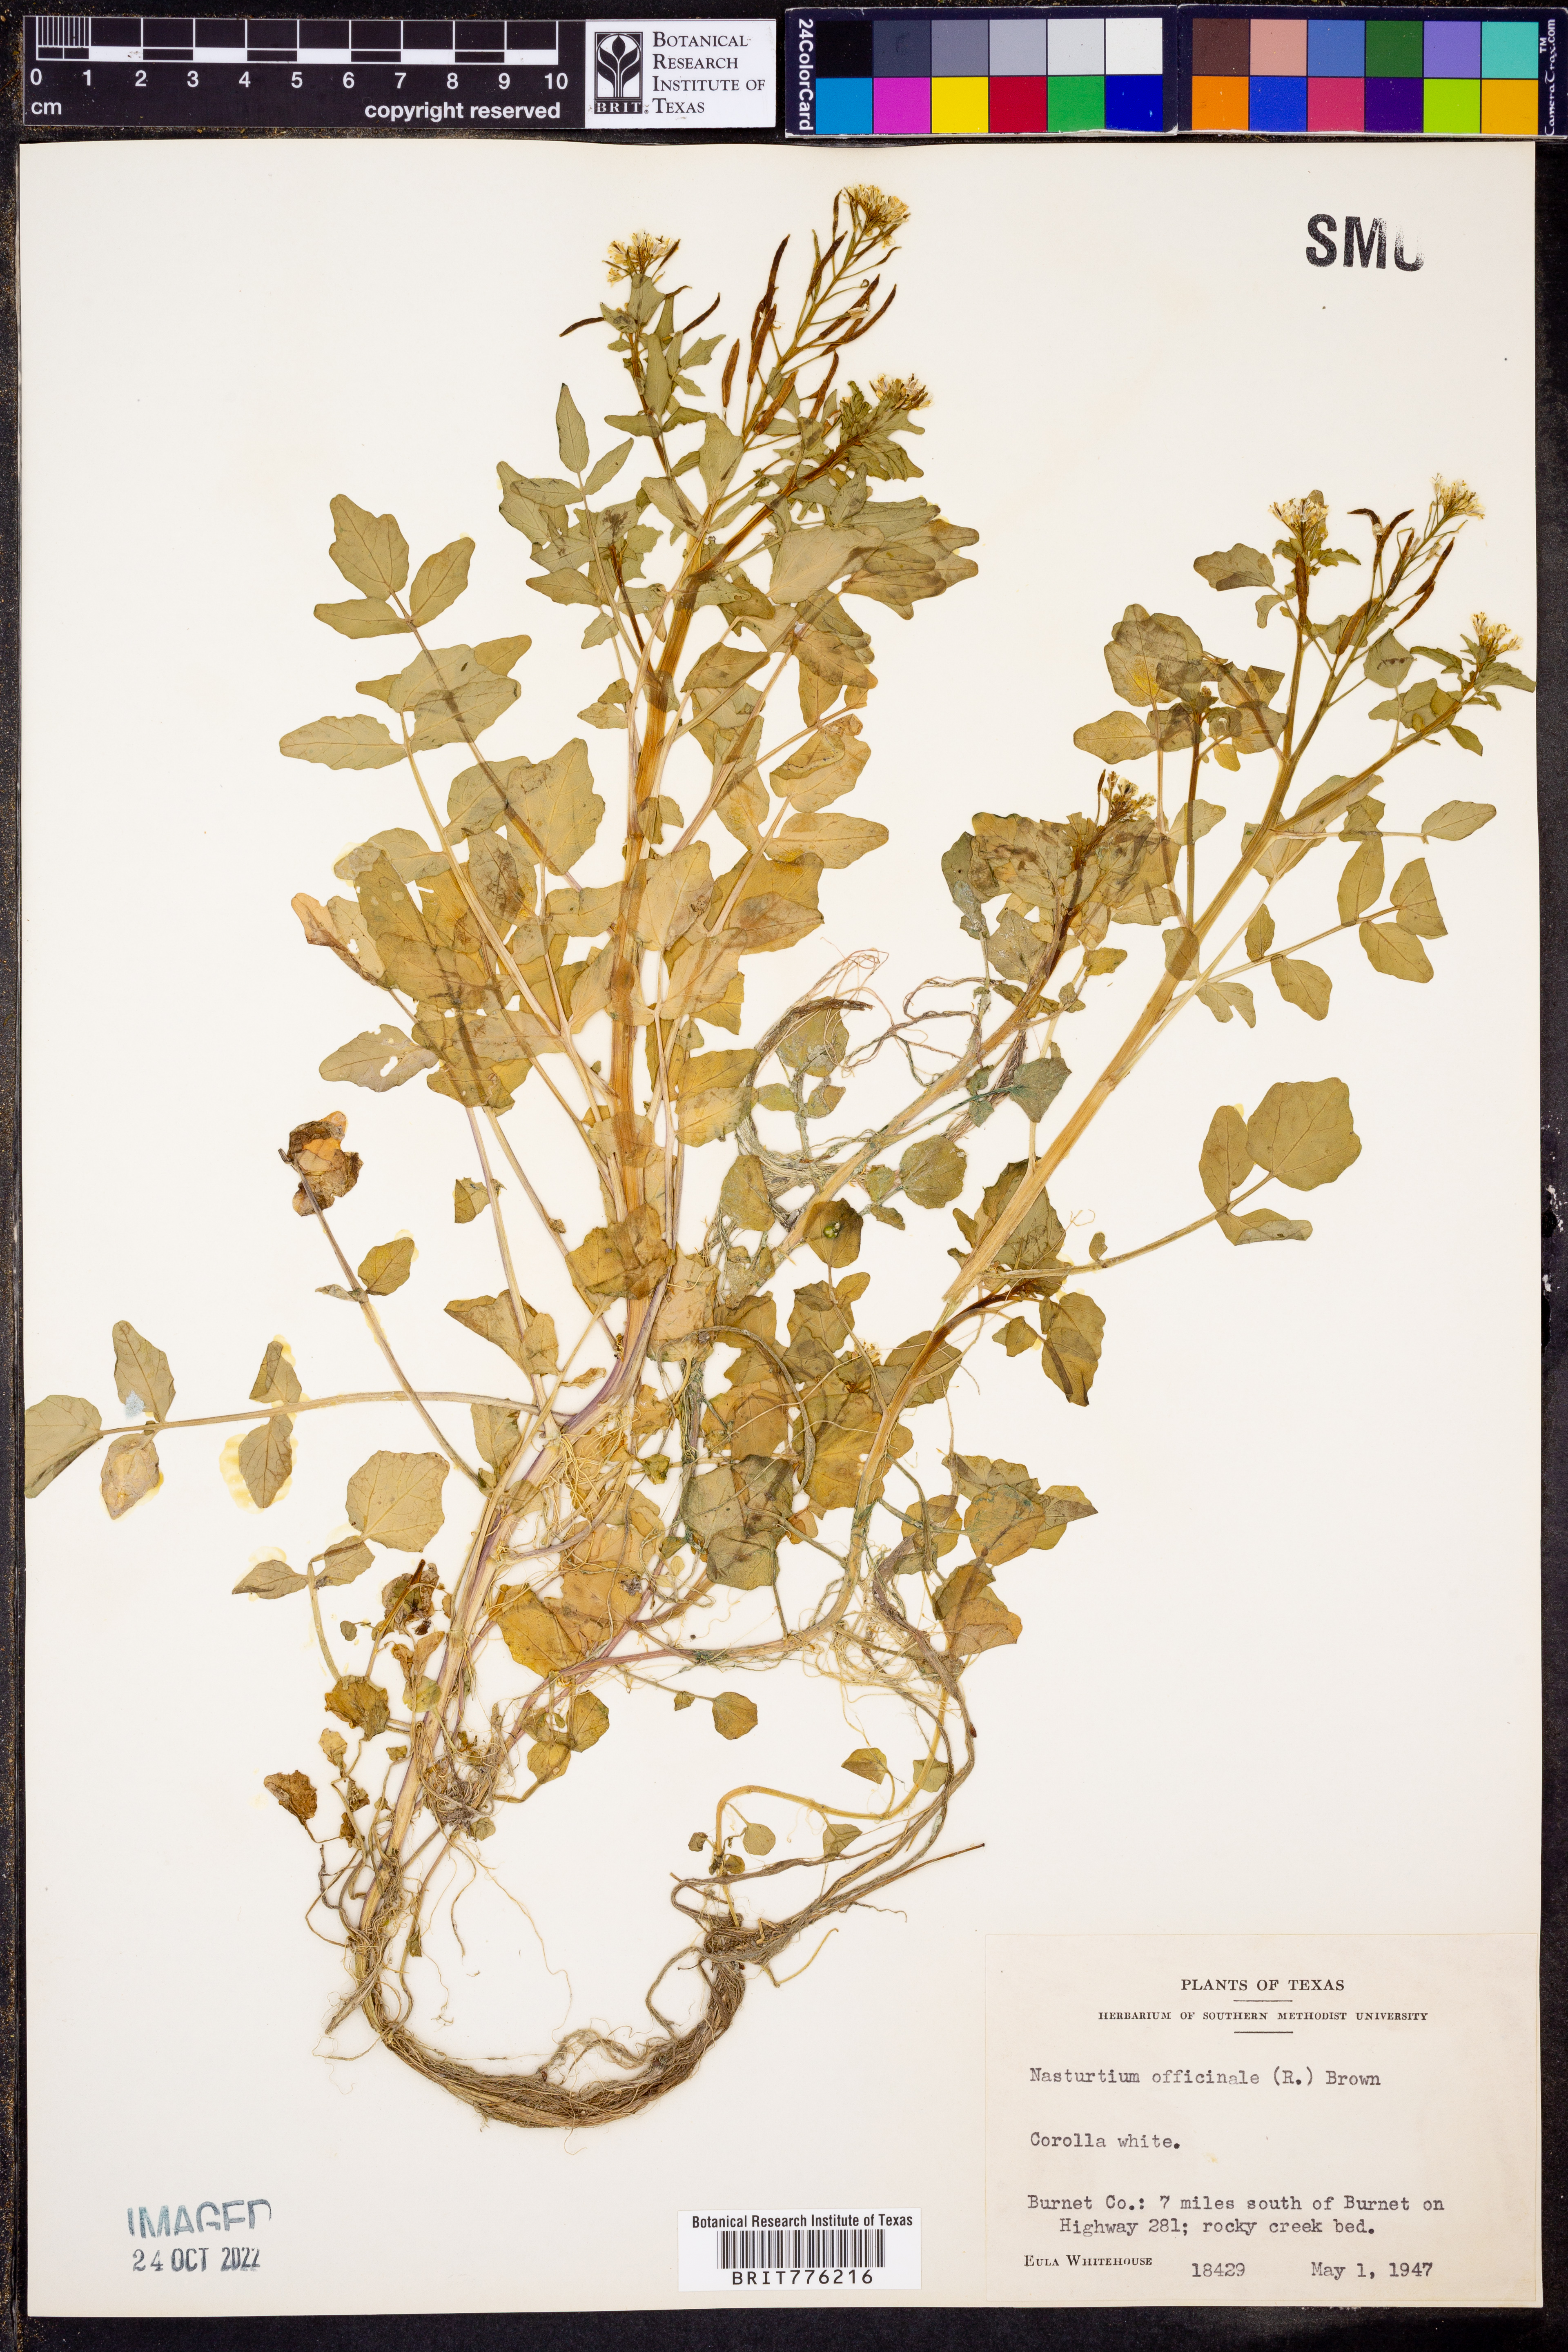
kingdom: Plantae
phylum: Tracheophyta
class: Magnoliopsida
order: Brassicales
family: Brassicaceae
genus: Nasturtium
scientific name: Nasturtium officinale
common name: Watercress
